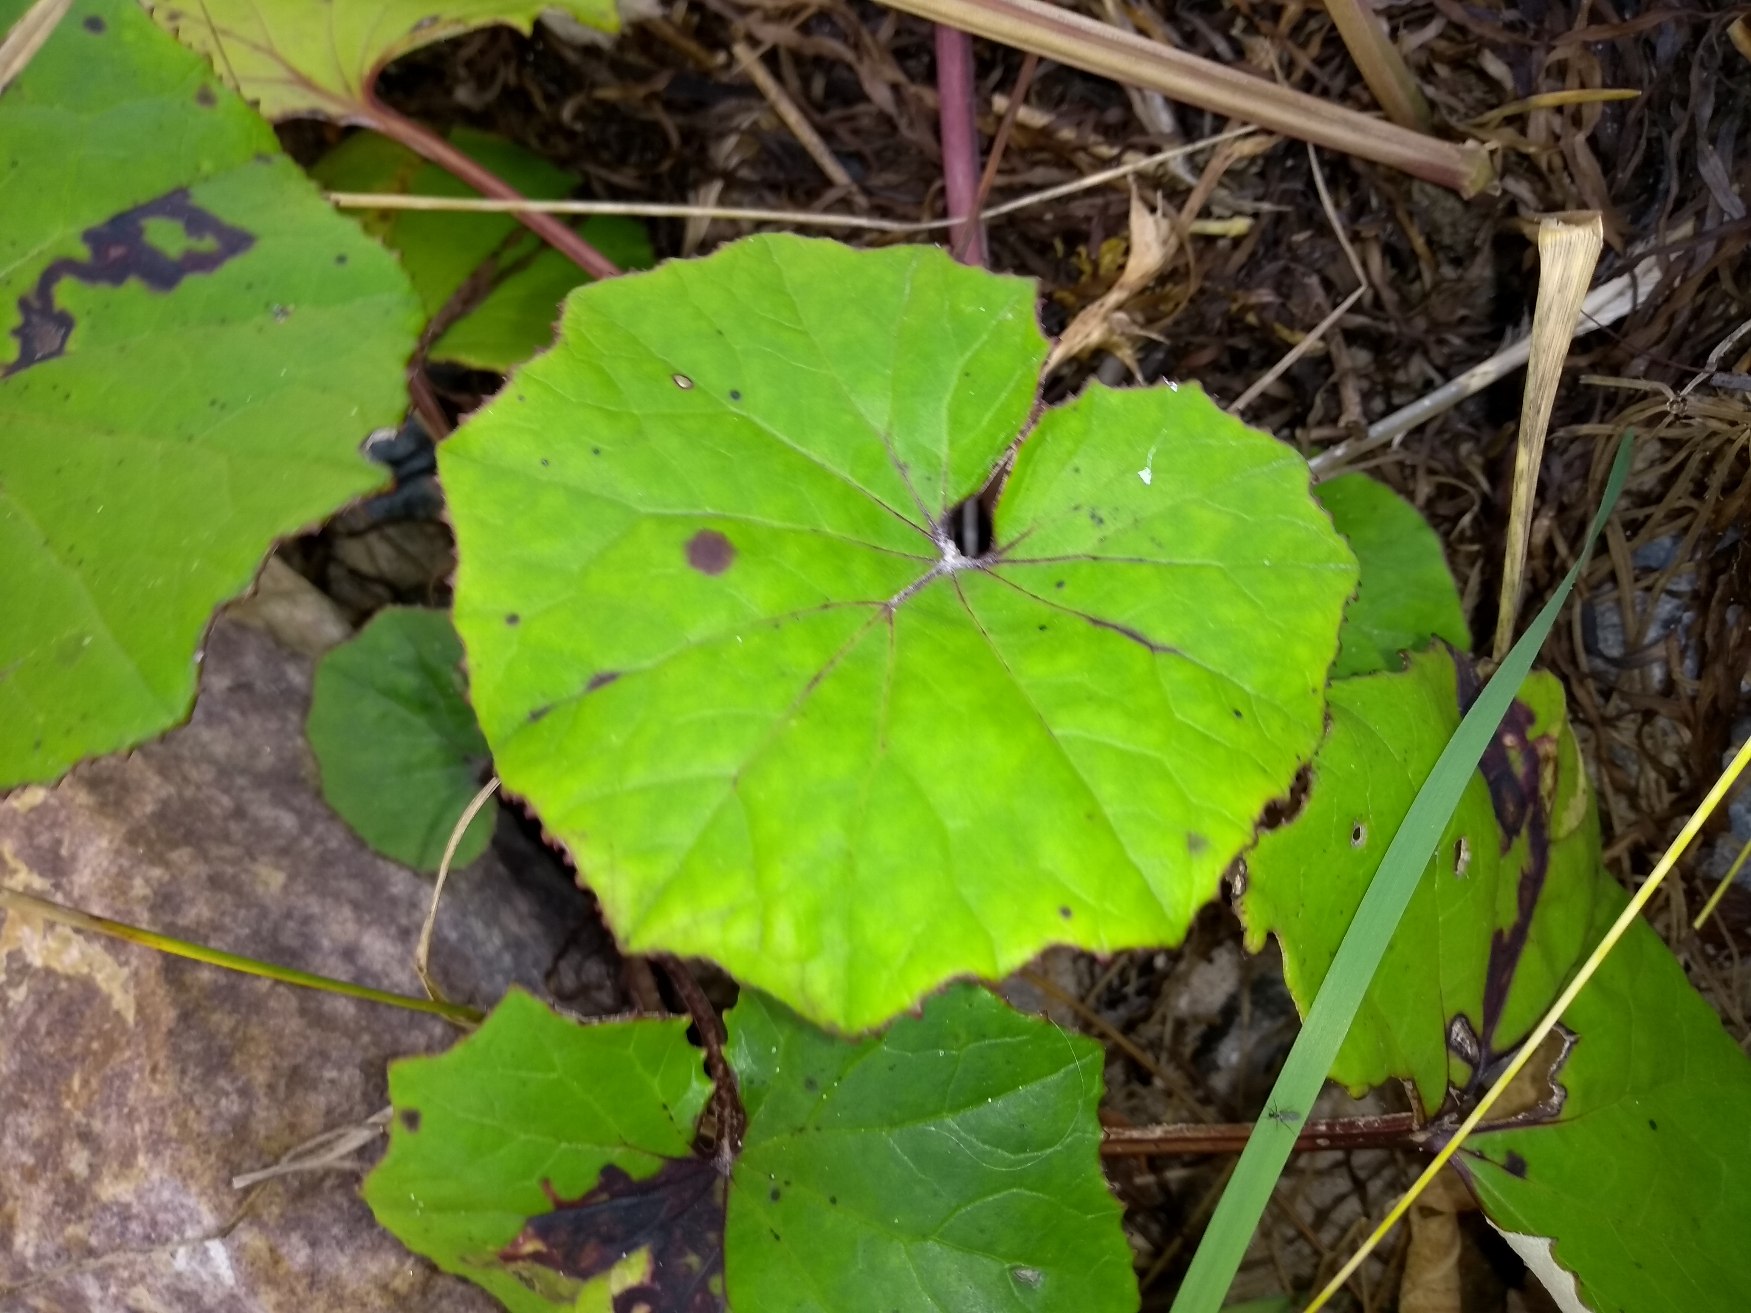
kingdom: Plantae
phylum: Tracheophyta
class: Magnoliopsida
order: Asterales
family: Asteraceae
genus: Tussilago
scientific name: Tussilago farfara
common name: Følfod
